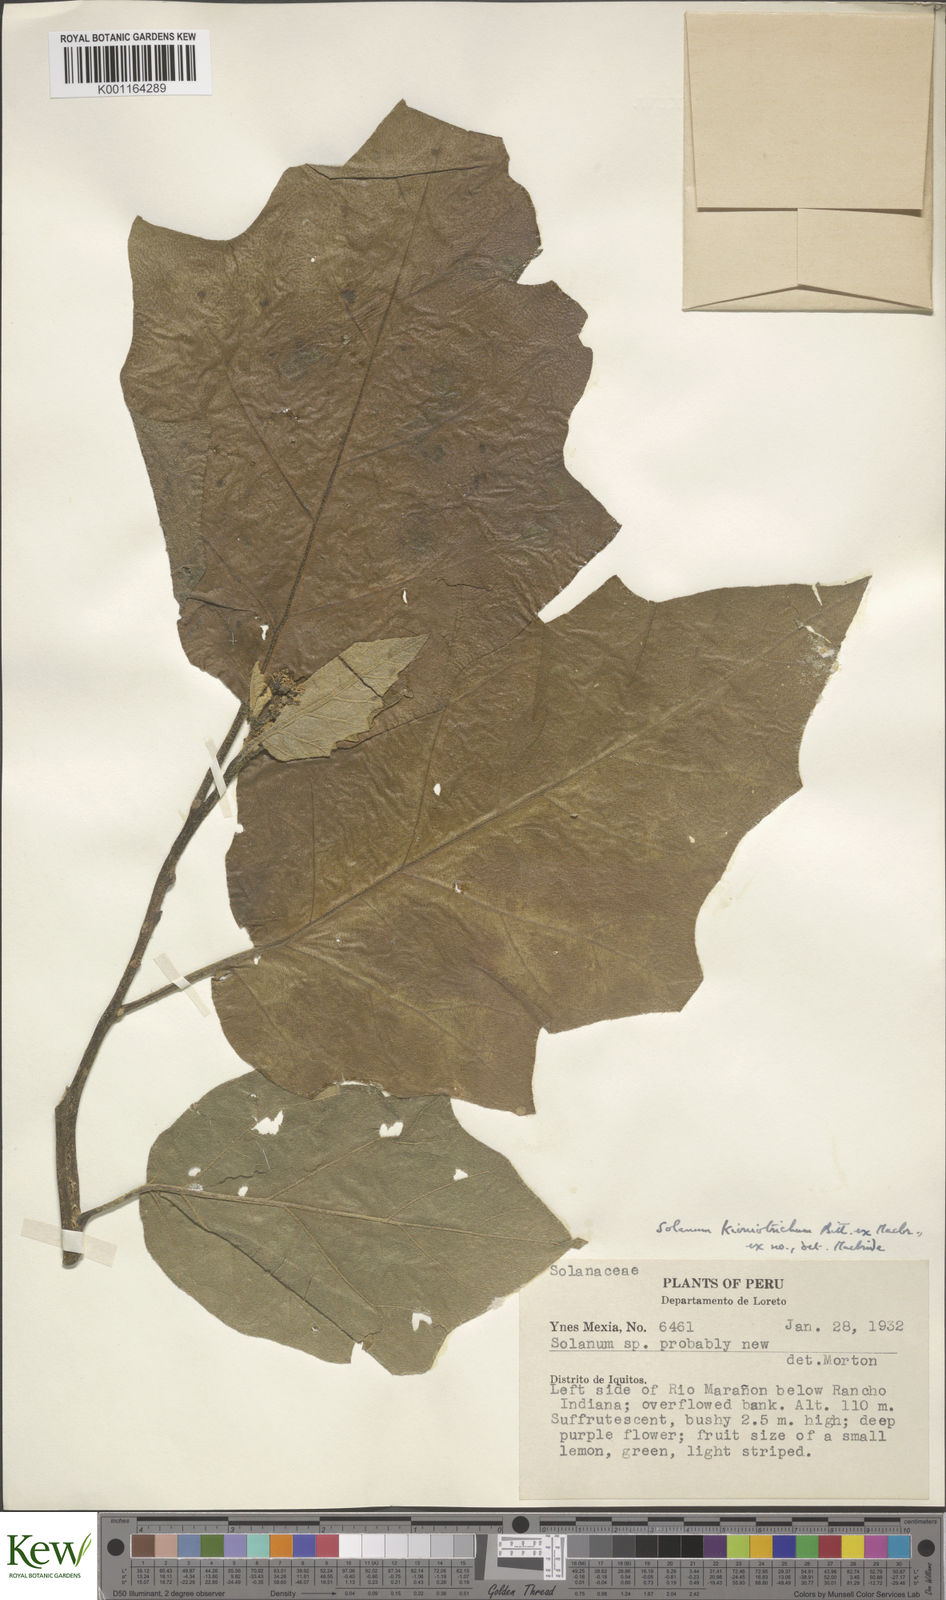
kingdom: Plantae
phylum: Tracheophyta
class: Magnoliopsida
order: Solanales
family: Solanaceae
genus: Solanum
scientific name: Solanum kioniotrichum
